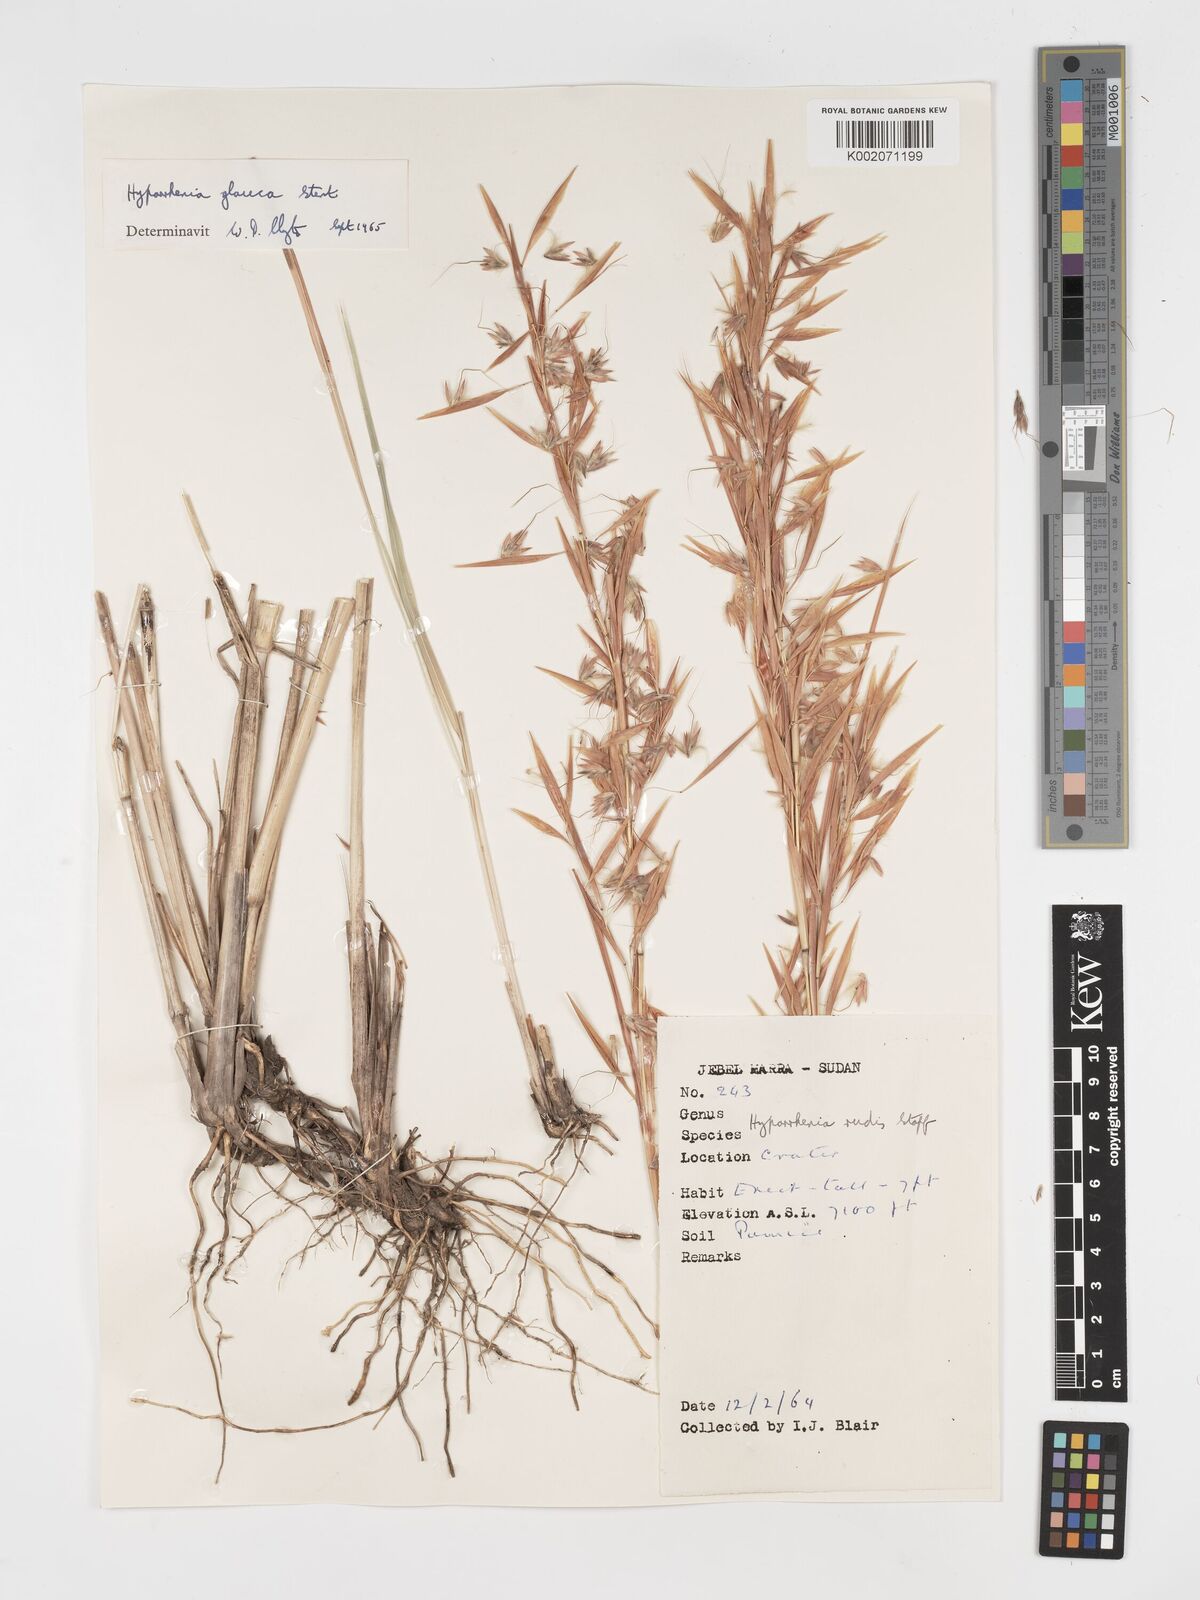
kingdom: Plantae
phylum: Tracheophyta
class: Liliopsida
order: Poales
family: Poaceae
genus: Hyparrhenia
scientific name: Hyparrhenia tamba
